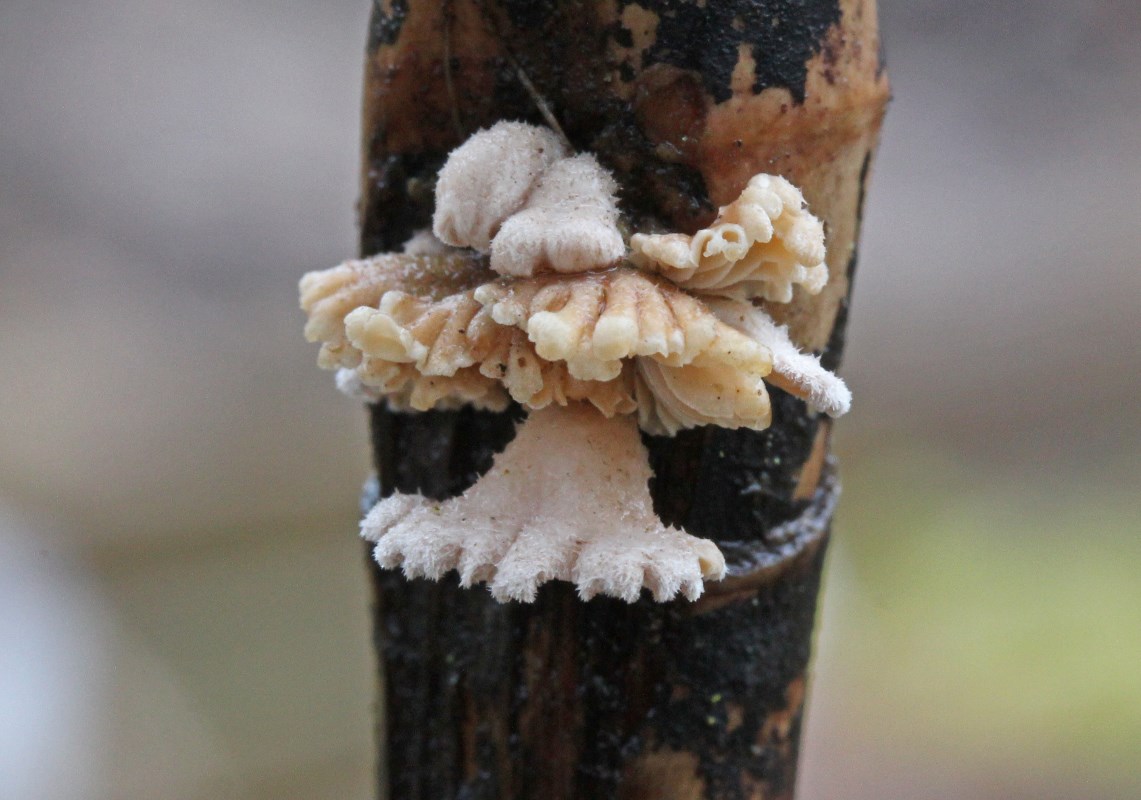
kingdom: Fungi
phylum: Basidiomycota
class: Agaricomycetes
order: Agaricales
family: Schizophyllaceae
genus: Schizophyllum
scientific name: Schizophyllum commune
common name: kløvblad
